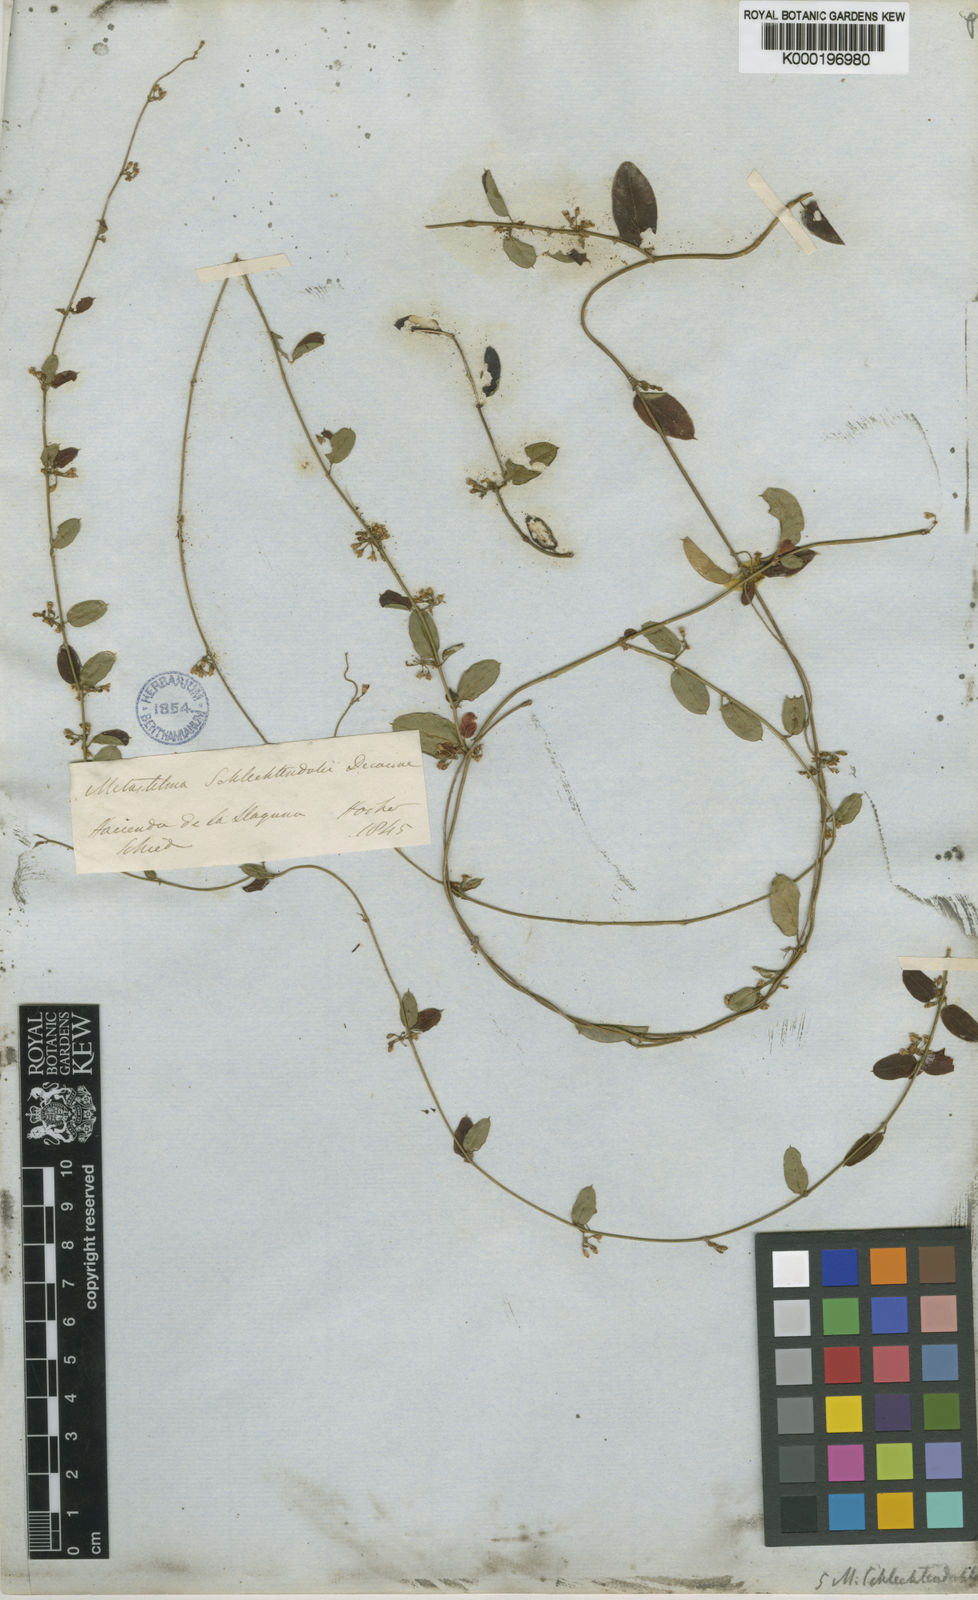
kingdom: Plantae
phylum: Tracheophyta
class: Magnoliopsida
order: Gentianales
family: Apocynaceae
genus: Metastelma
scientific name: Metastelma schlechtendalii
